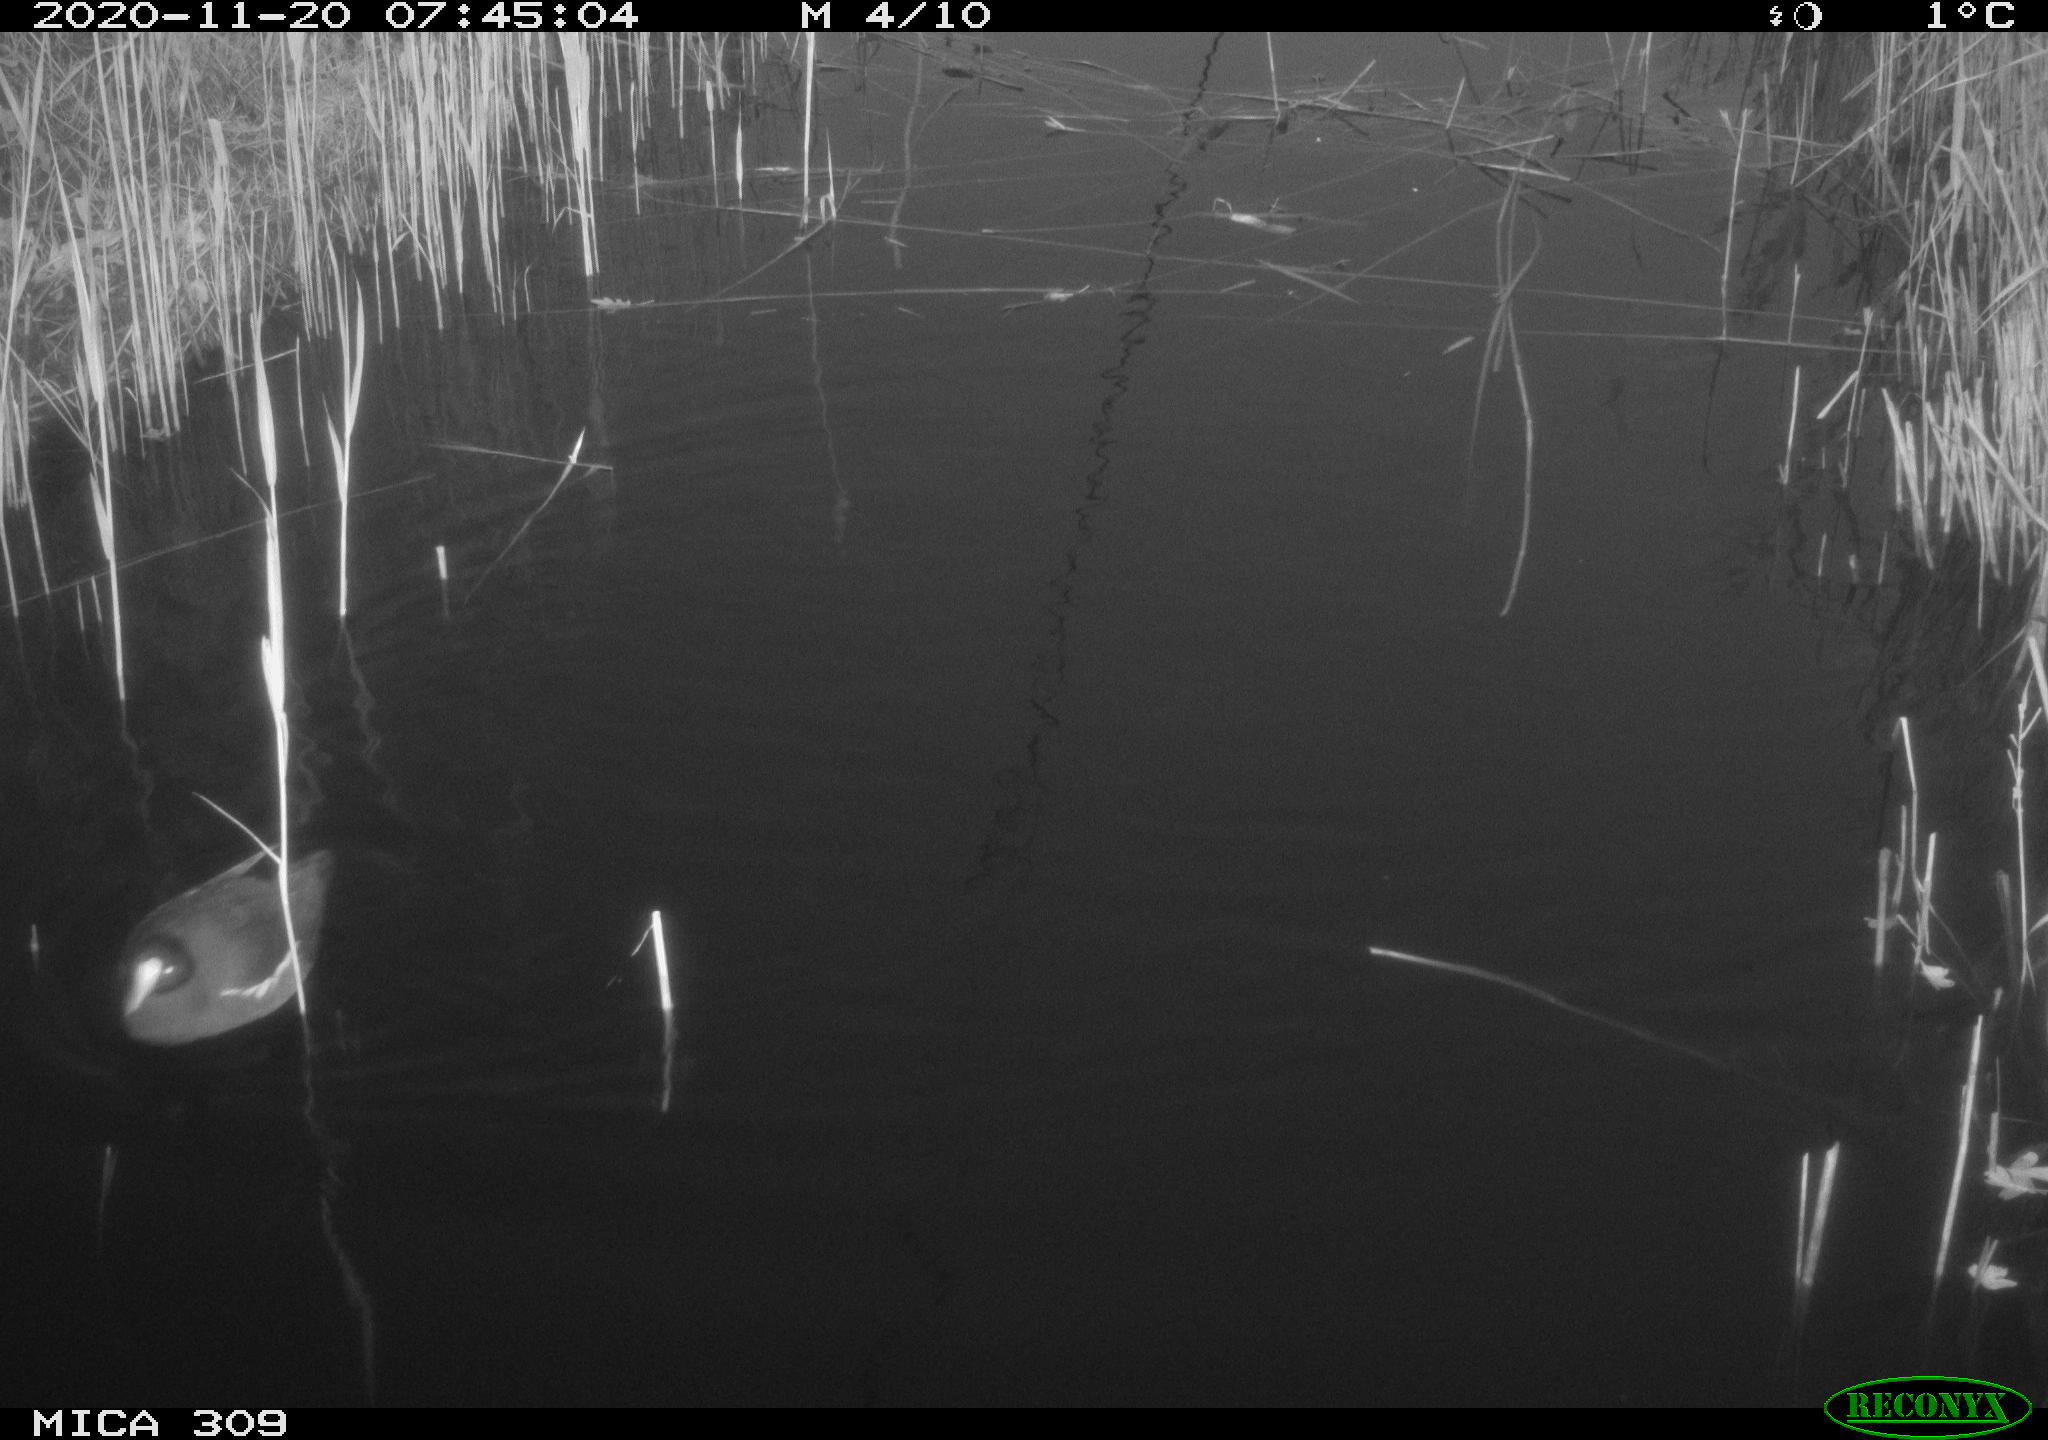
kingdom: Animalia
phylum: Chordata
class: Aves
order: Gruiformes
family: Rallidae
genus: Gallinula
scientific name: Gallinula chloropus
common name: Common moorhen
